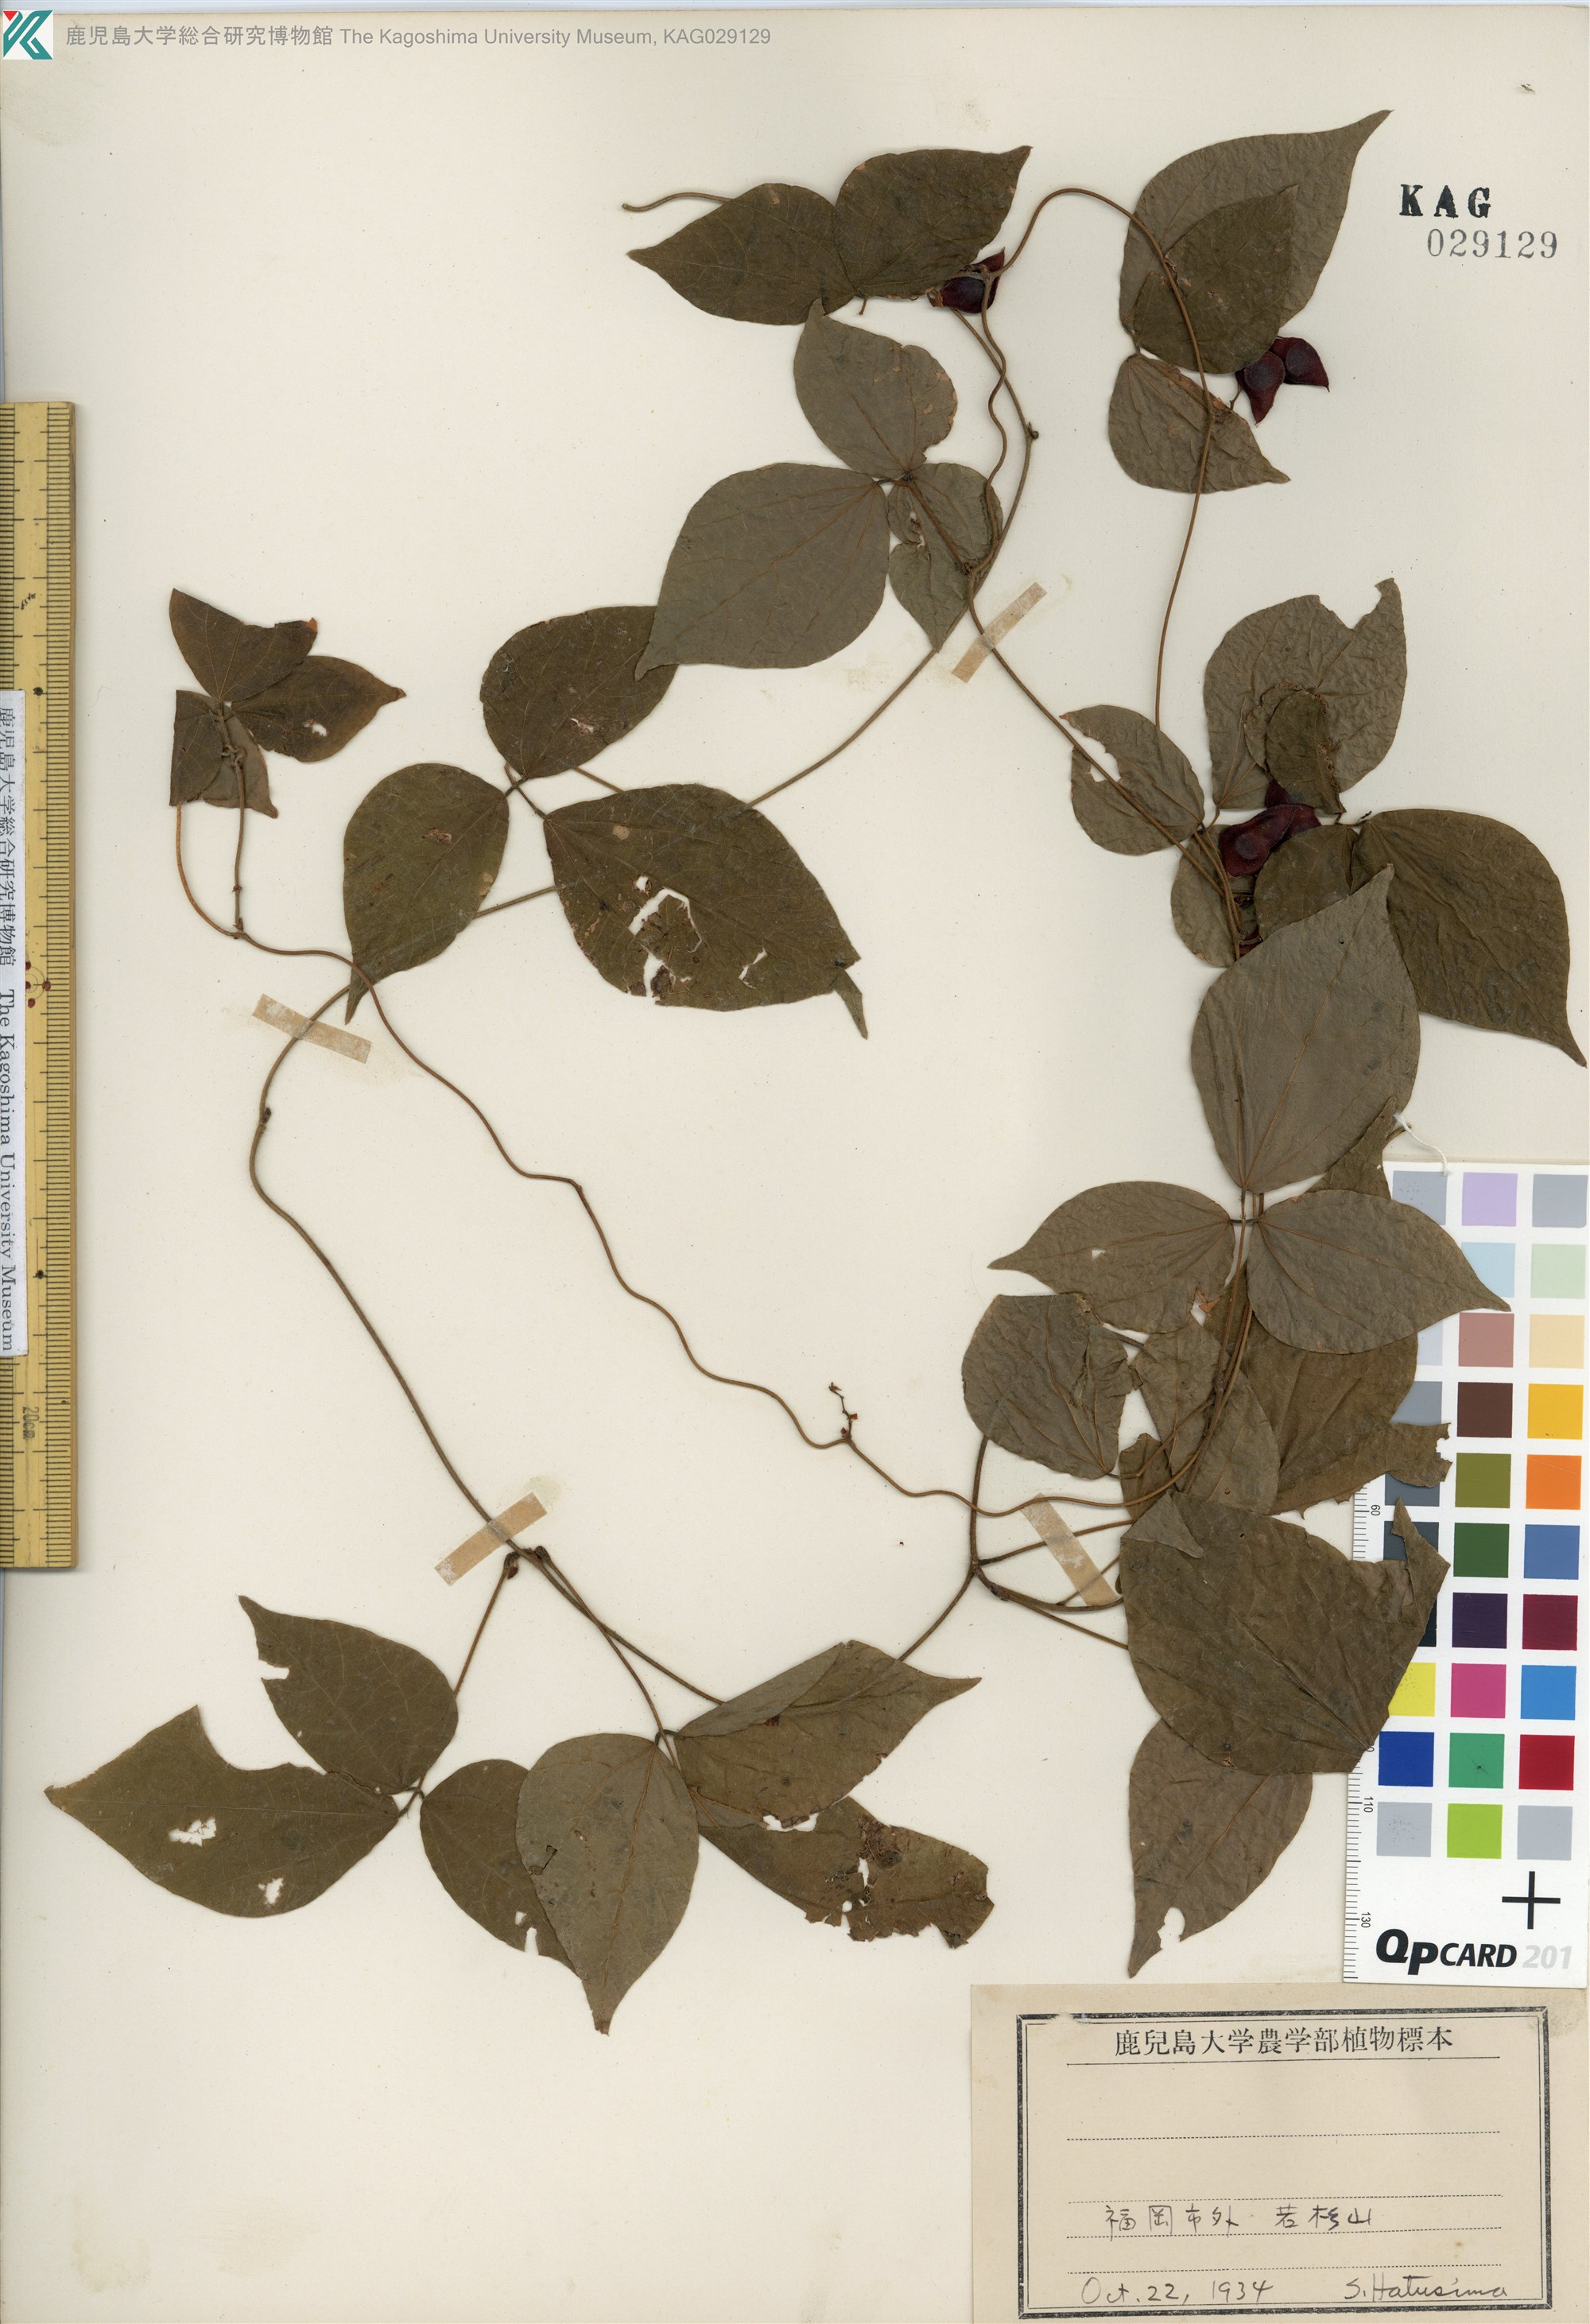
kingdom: Plantae
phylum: Tracheophyta
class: Magnoliopsida
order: Fabales
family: Fabaceae
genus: Rhynchosia
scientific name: Rhynchosia acuminatifolia
